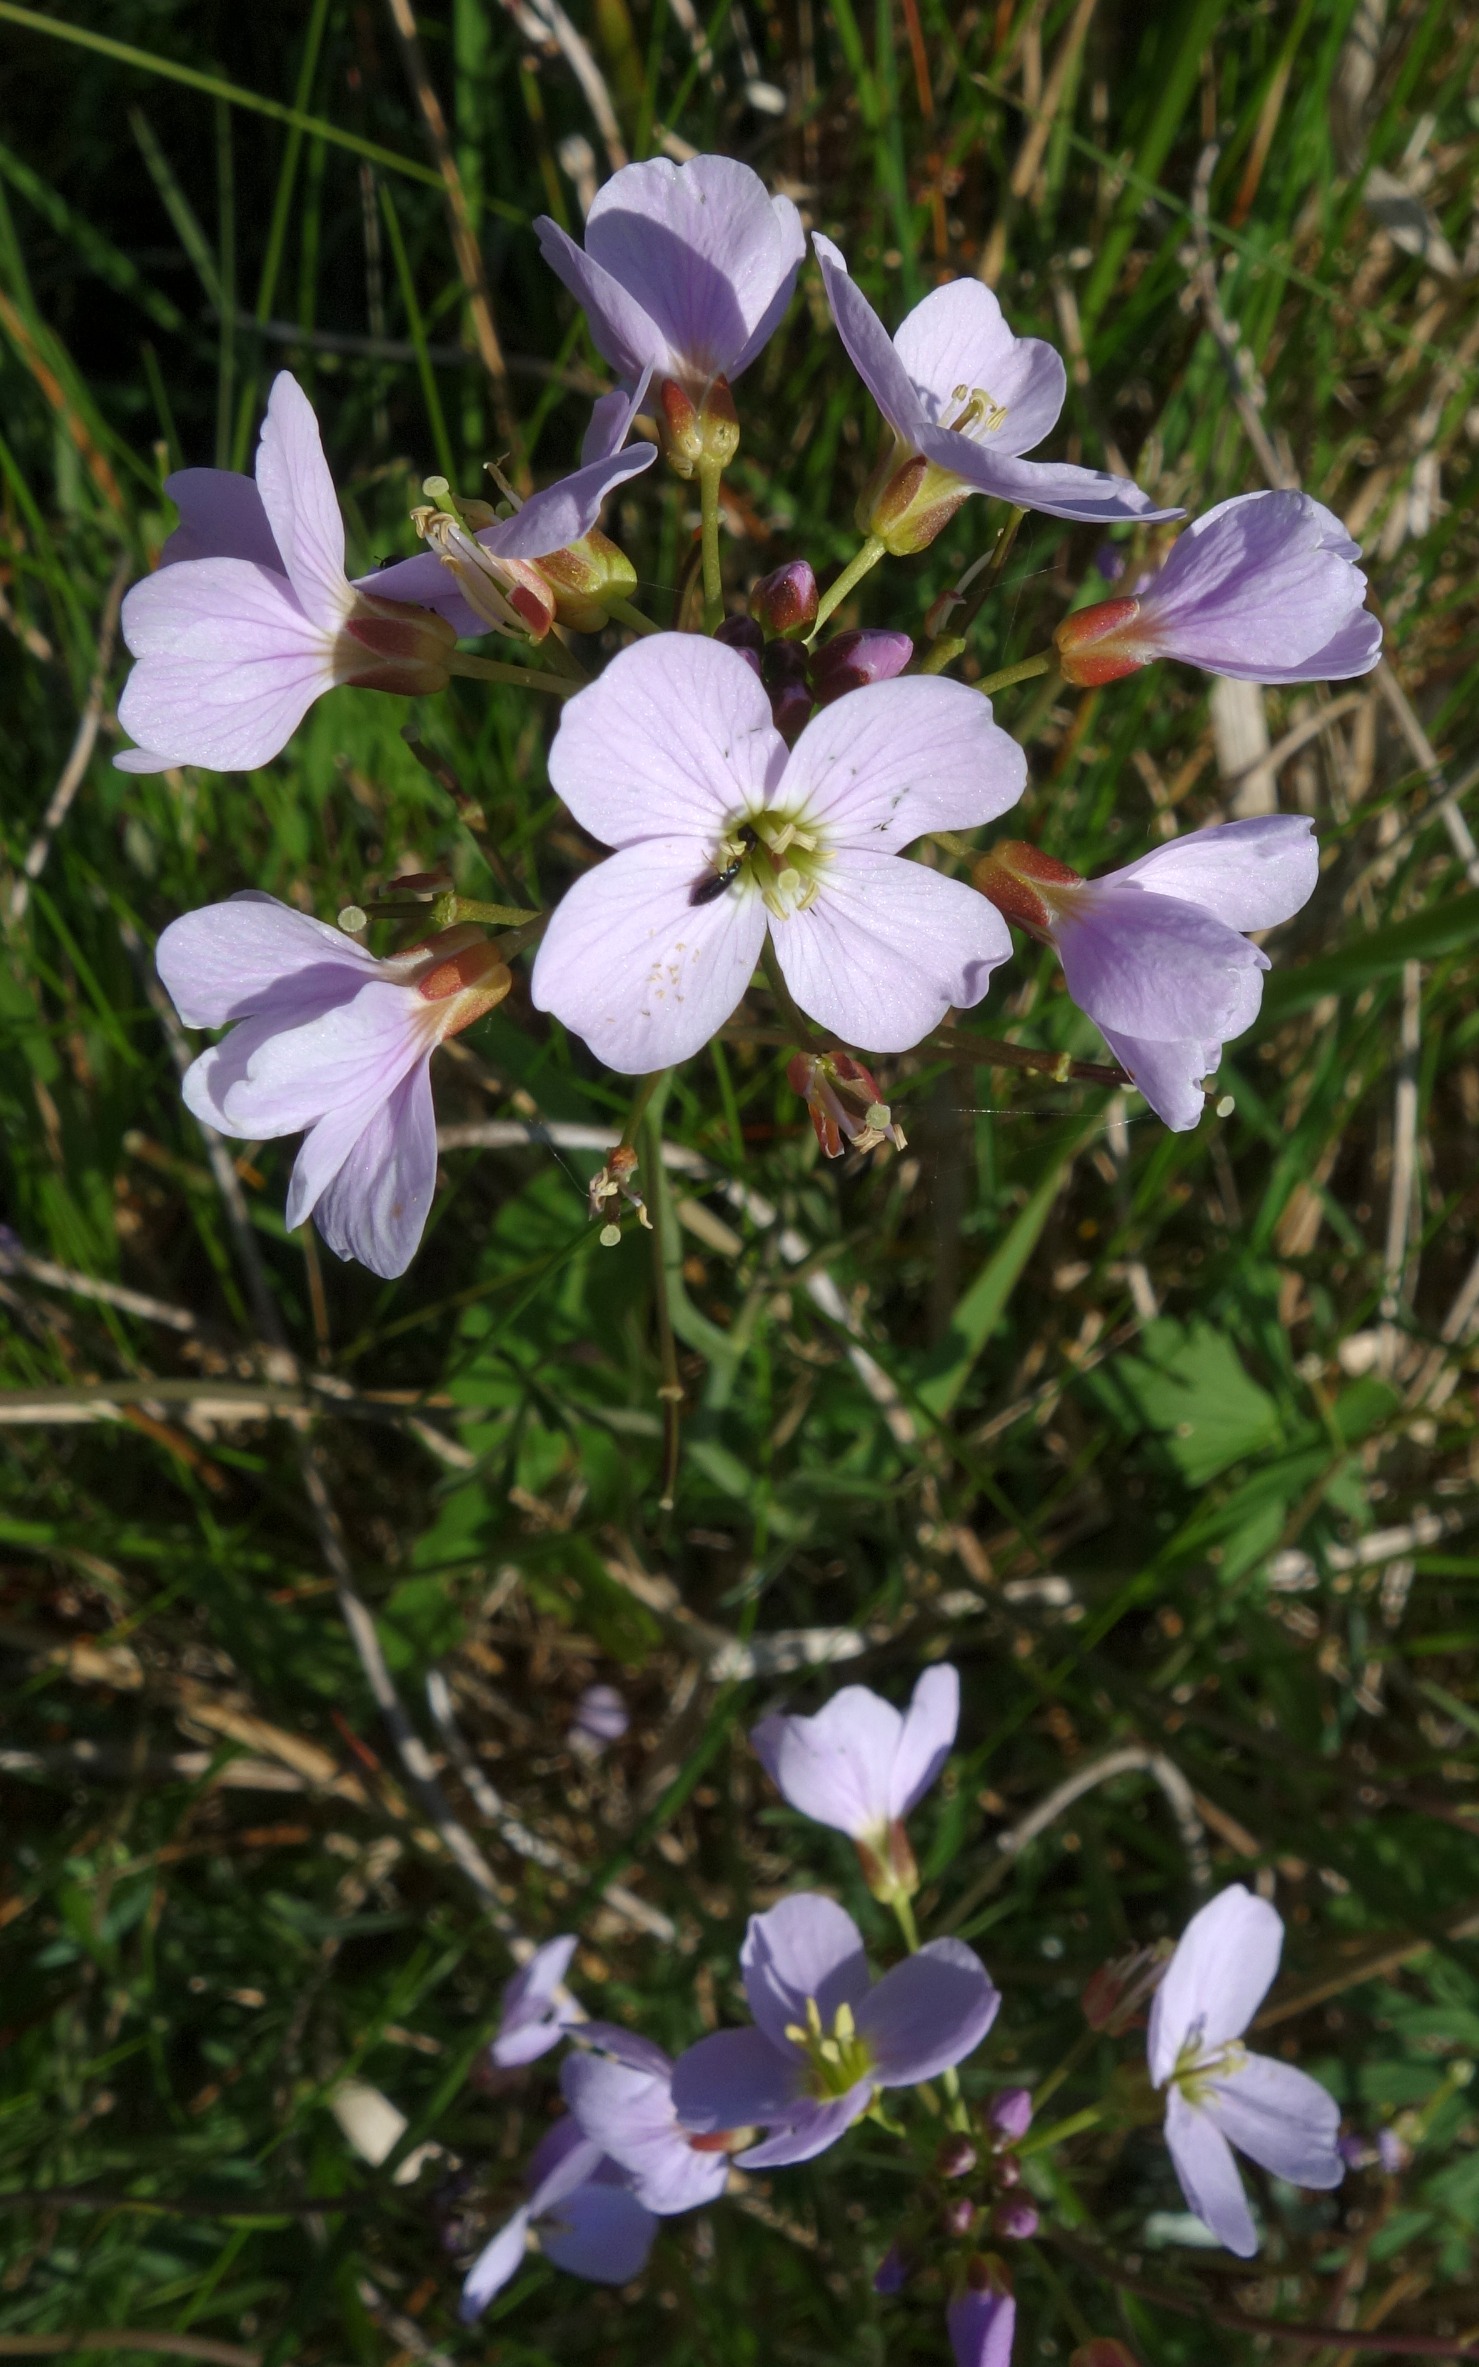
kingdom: Plantae
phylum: Tracheophyta
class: Magnoliopsida
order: Brassicales
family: Brassicaceae
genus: Cardamine
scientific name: Cardamine pratensis
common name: Engkarse
